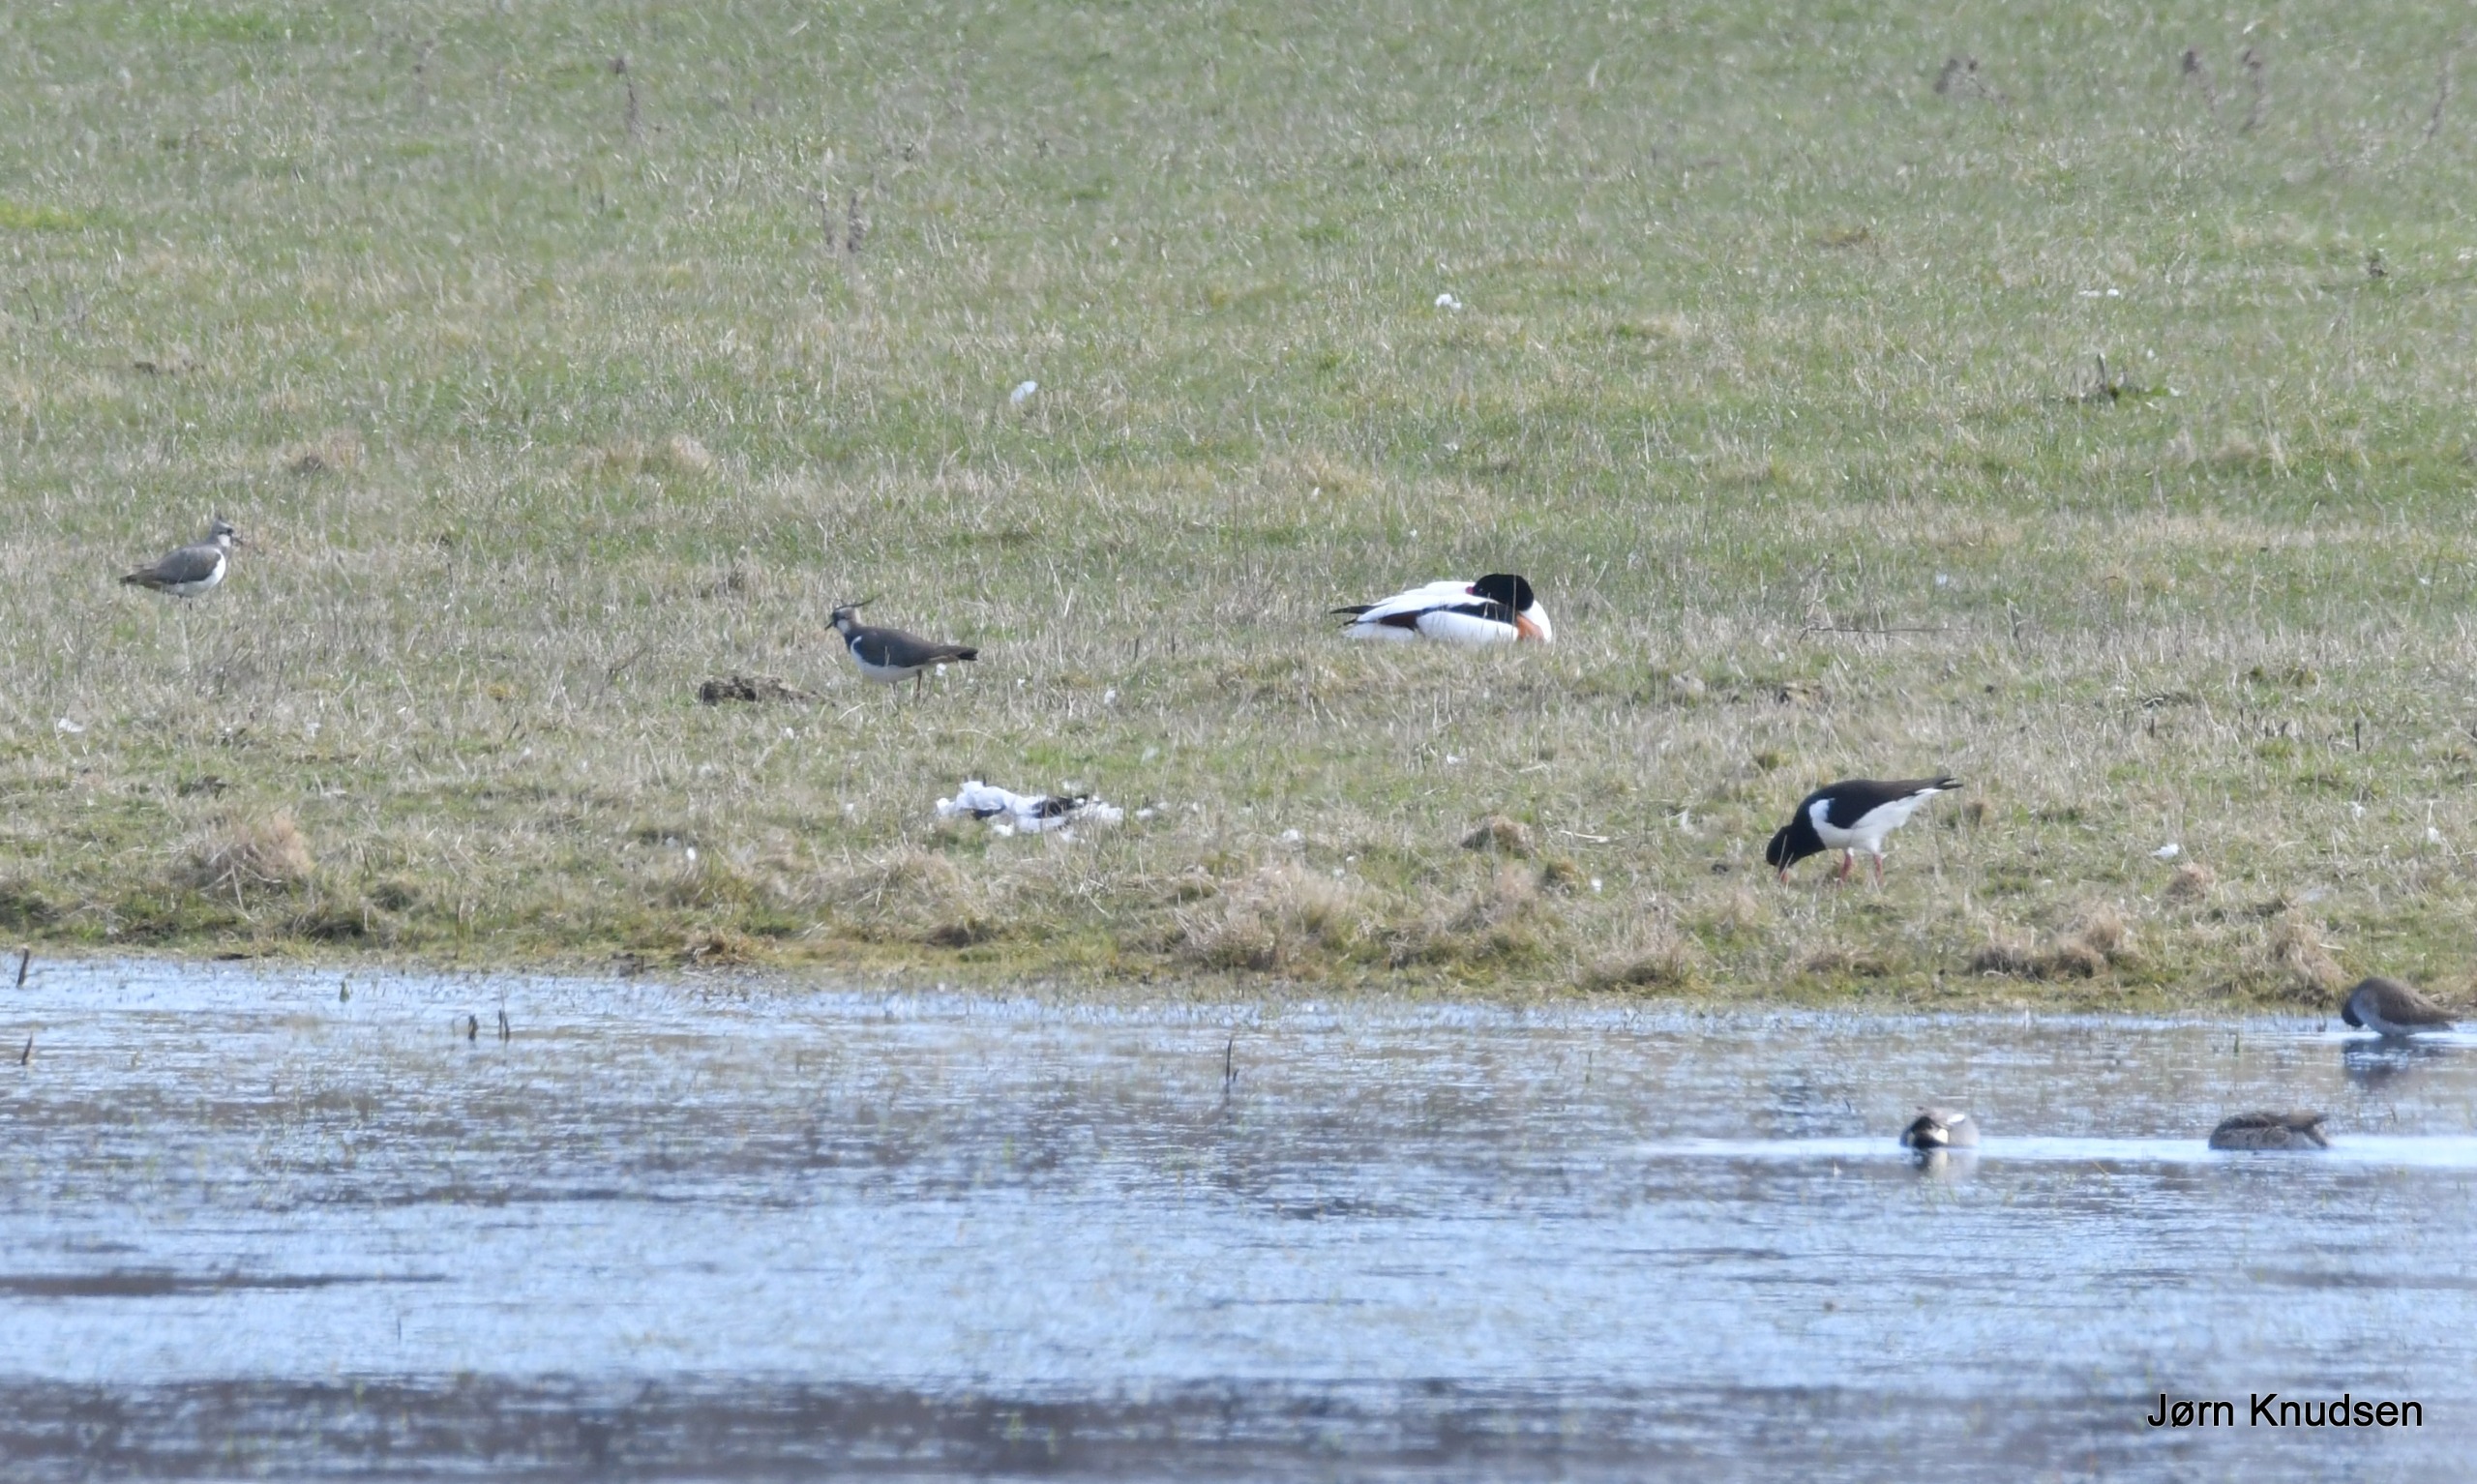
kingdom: Animalia
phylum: Chordata
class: Aves
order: Charadriiformes
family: Charadriidae
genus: Vanellus
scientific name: Vanellus vanellus
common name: Vibe
